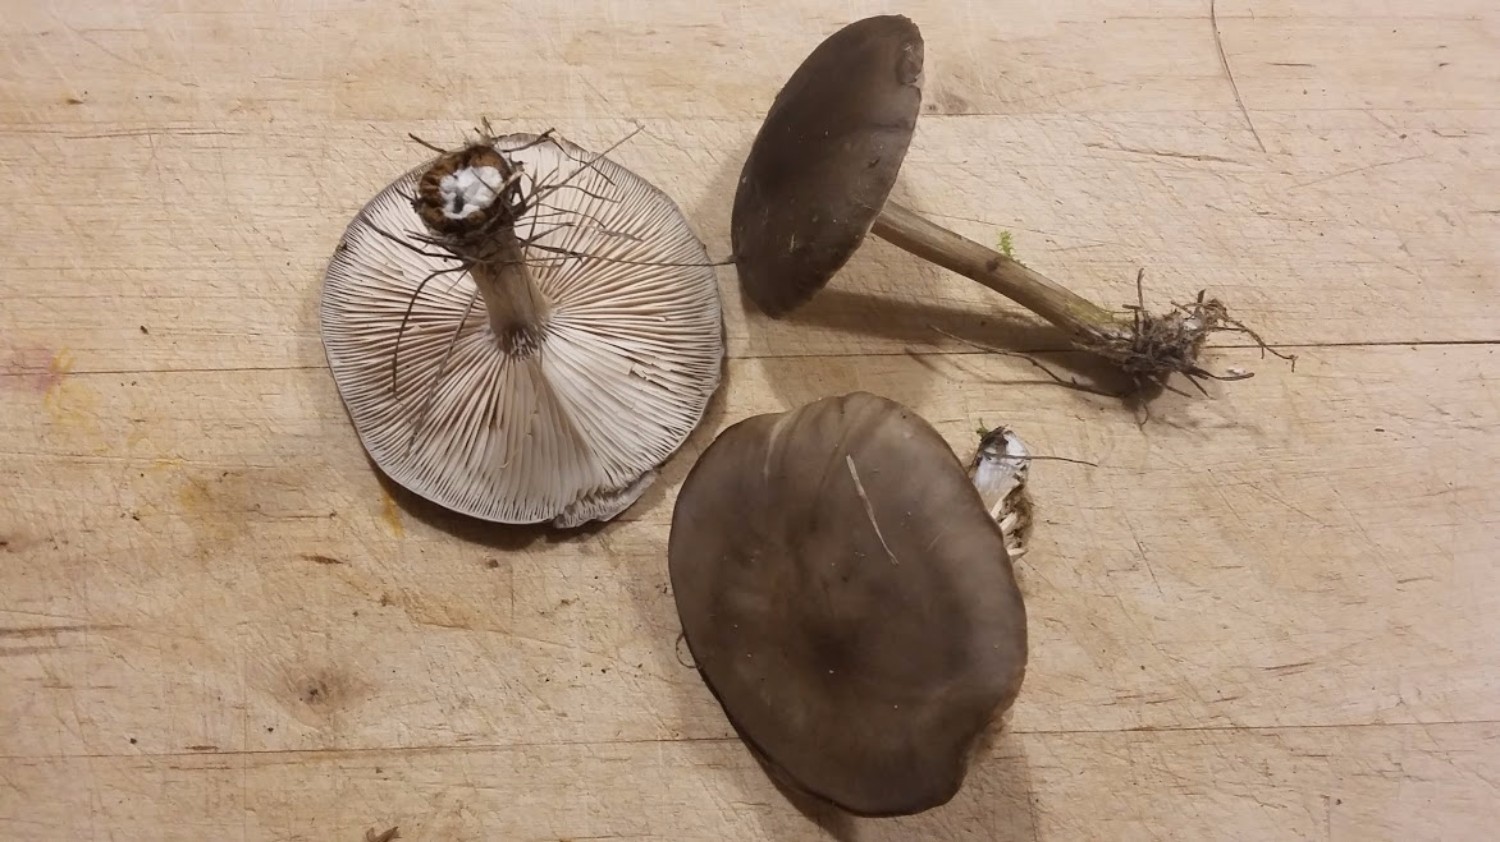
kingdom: Fungi
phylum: Basidiomycota
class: Agaricomycetes
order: Agaricales
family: Tricholomataceae
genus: Melanoleuca
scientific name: Melanoleuca
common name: munkehat
